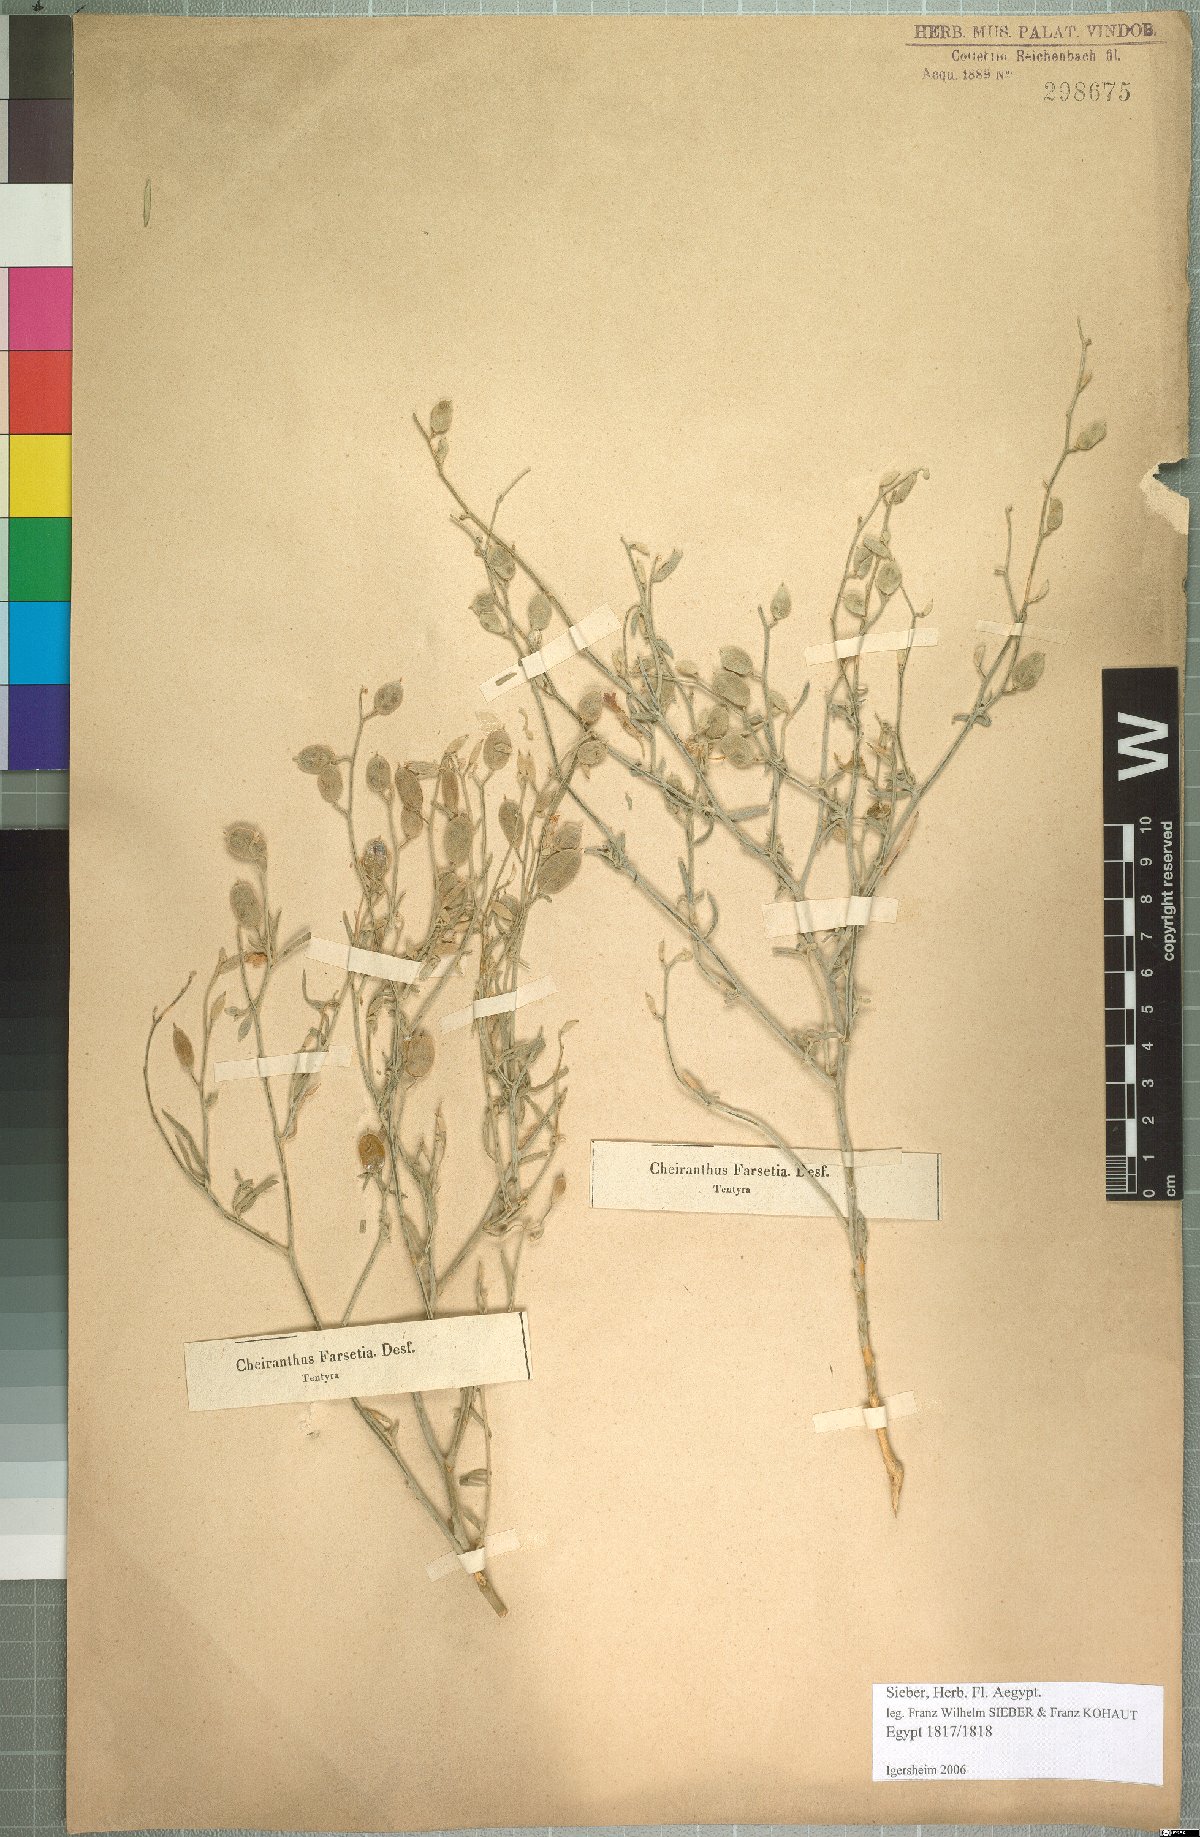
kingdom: Plantae
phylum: Tracheophyta
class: Magnoliopsida
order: Brassicales
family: Brassicaceae
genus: Farsetia
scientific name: Farsetia aegyptia
